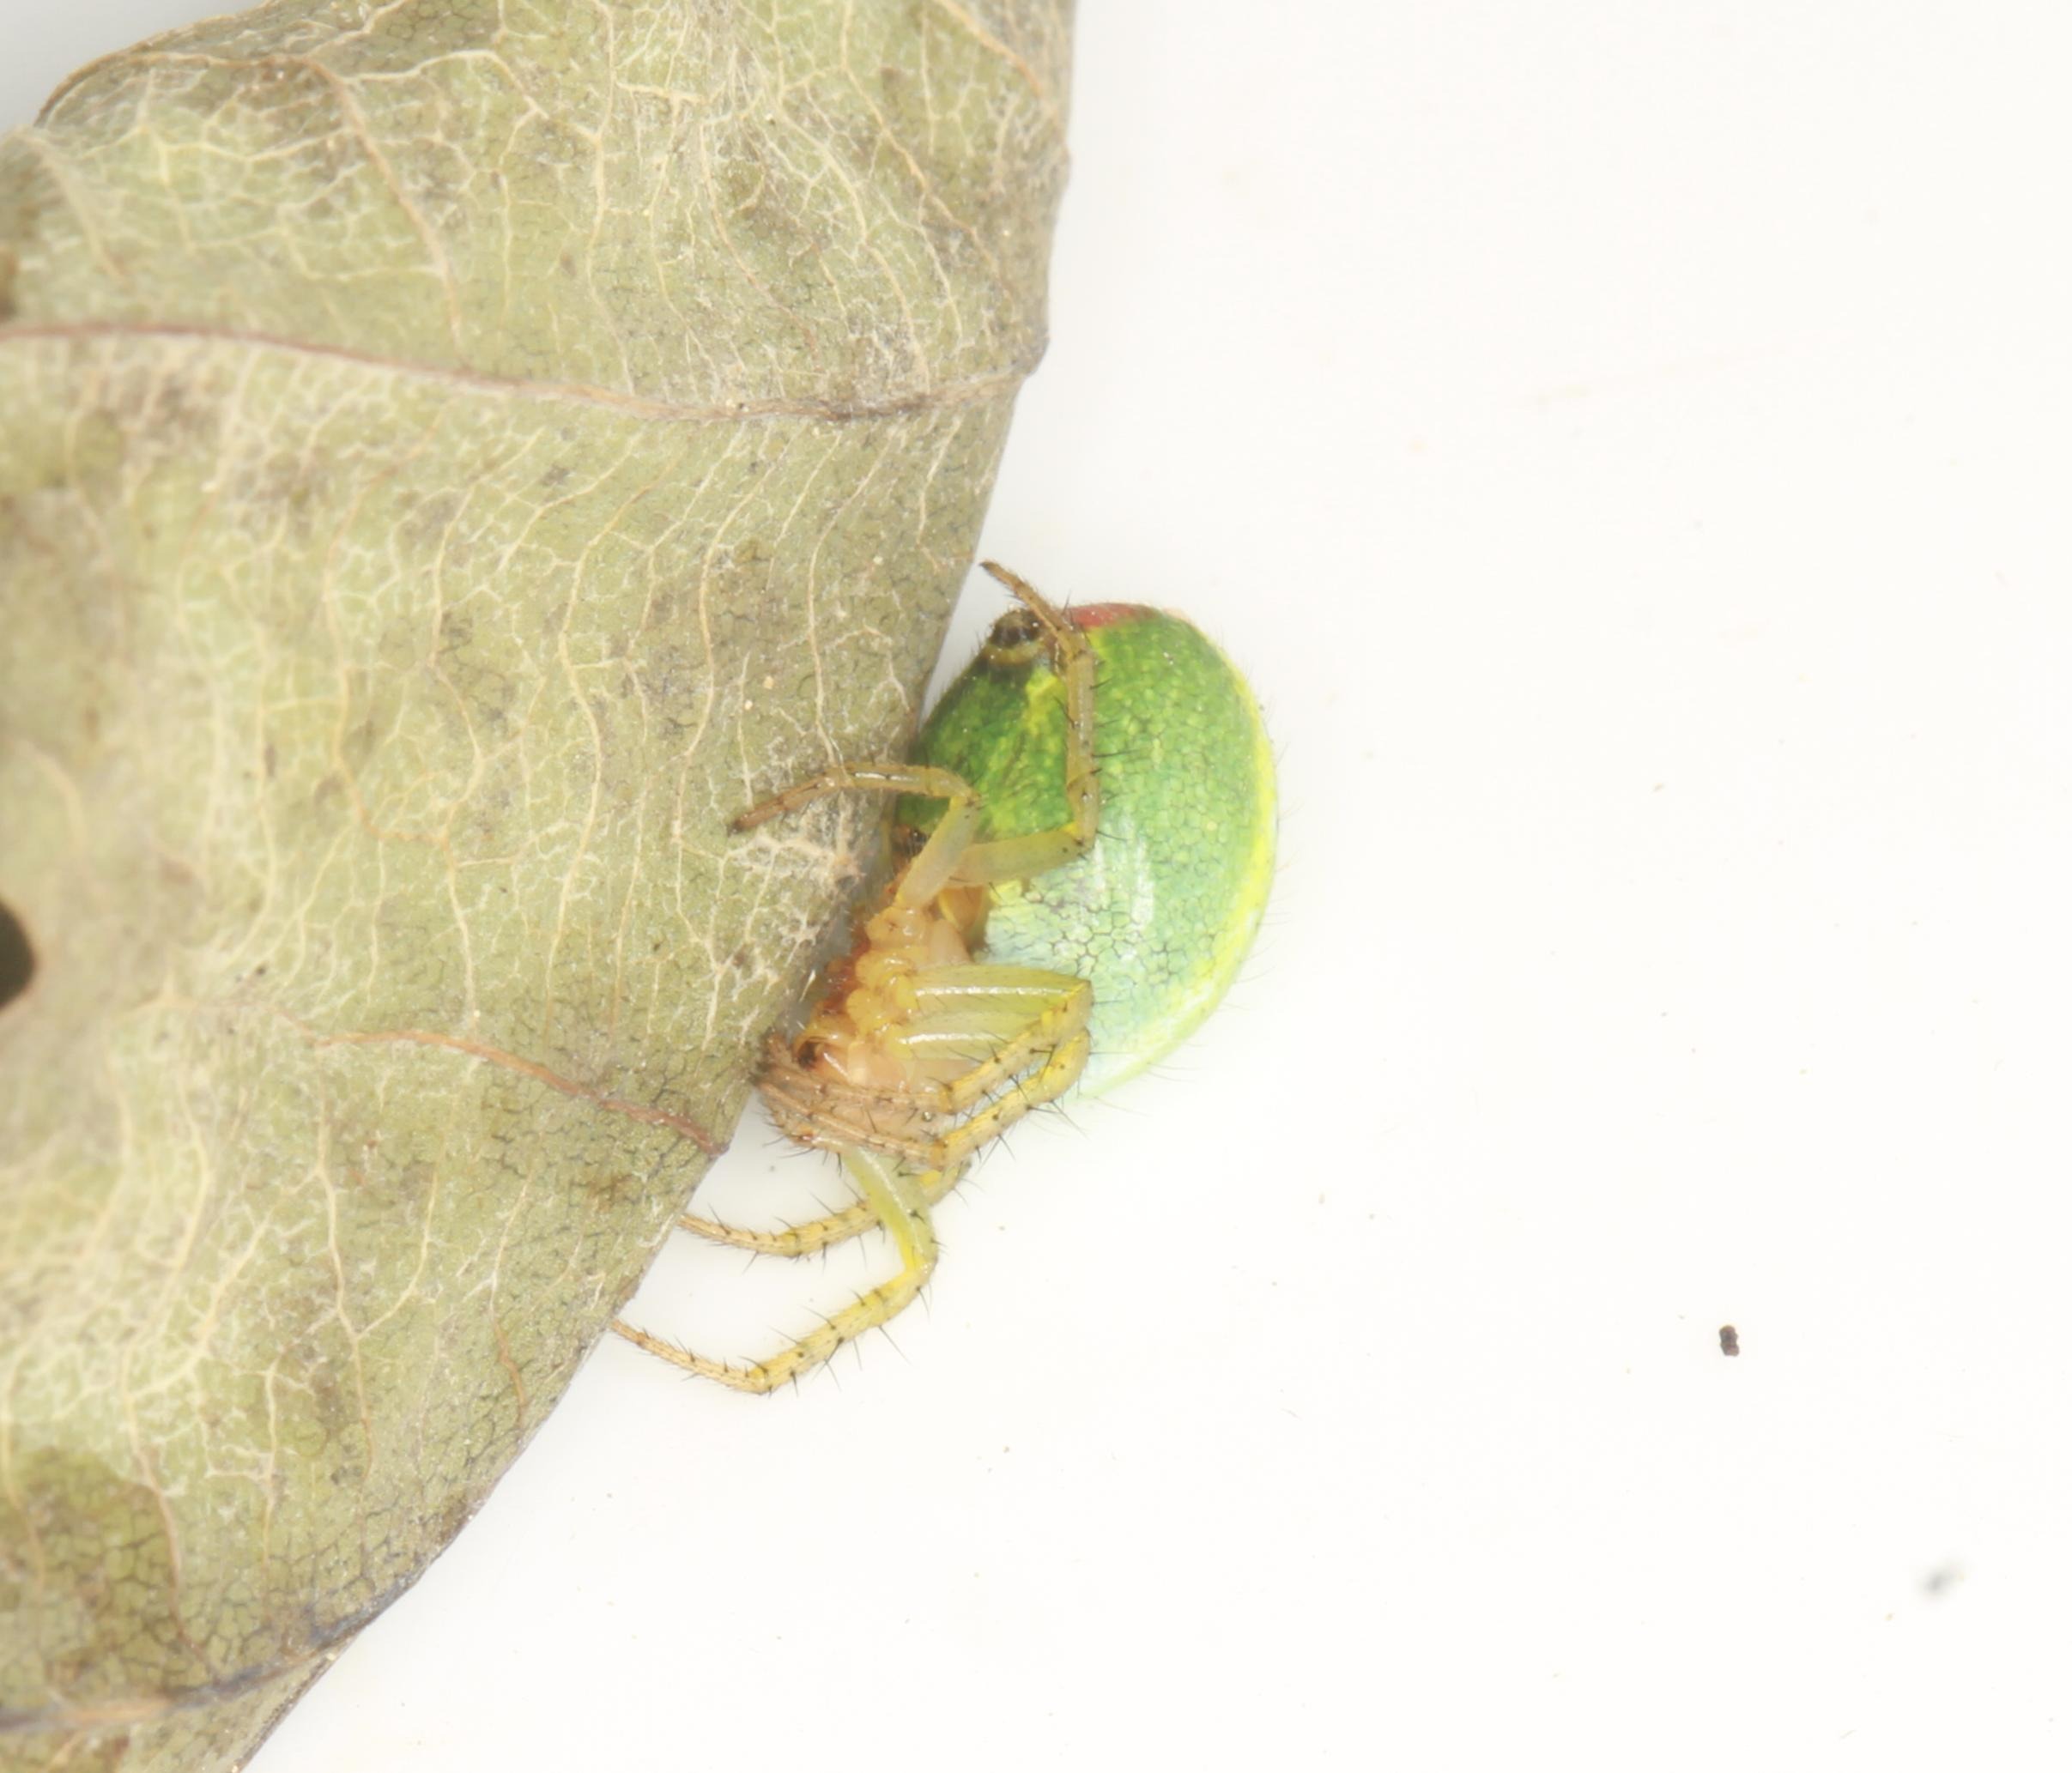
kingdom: Animalia
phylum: Arthropoda
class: Arachnida
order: Araneae
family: Araneidae
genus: Araniella
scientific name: Araniella cucurbitina
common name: Agurkehjulspinder
